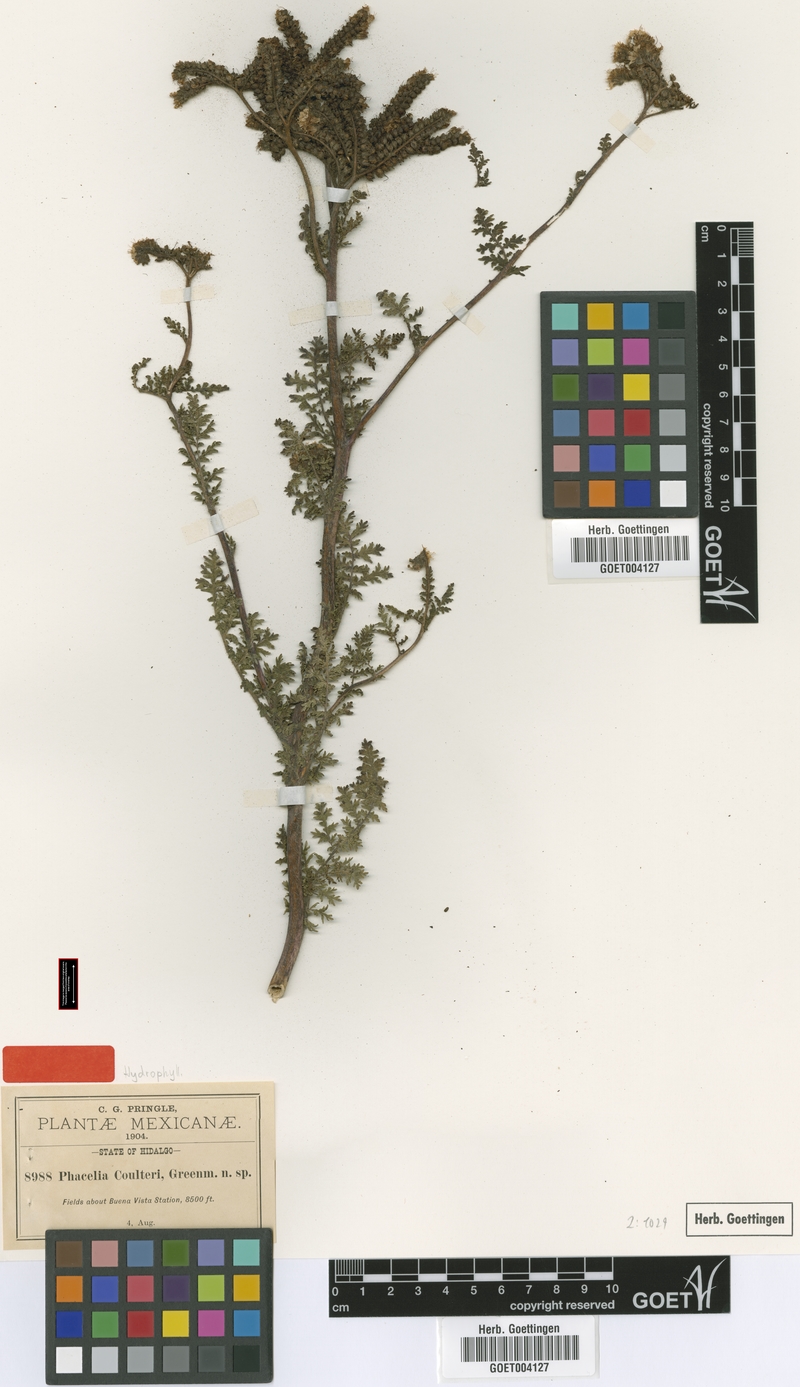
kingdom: Plantae
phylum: Tracheophyta
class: Magnoliopsida
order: Boraginales
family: Hydrophyllaceae
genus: Phacelia
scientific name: Phacelia coulteri
